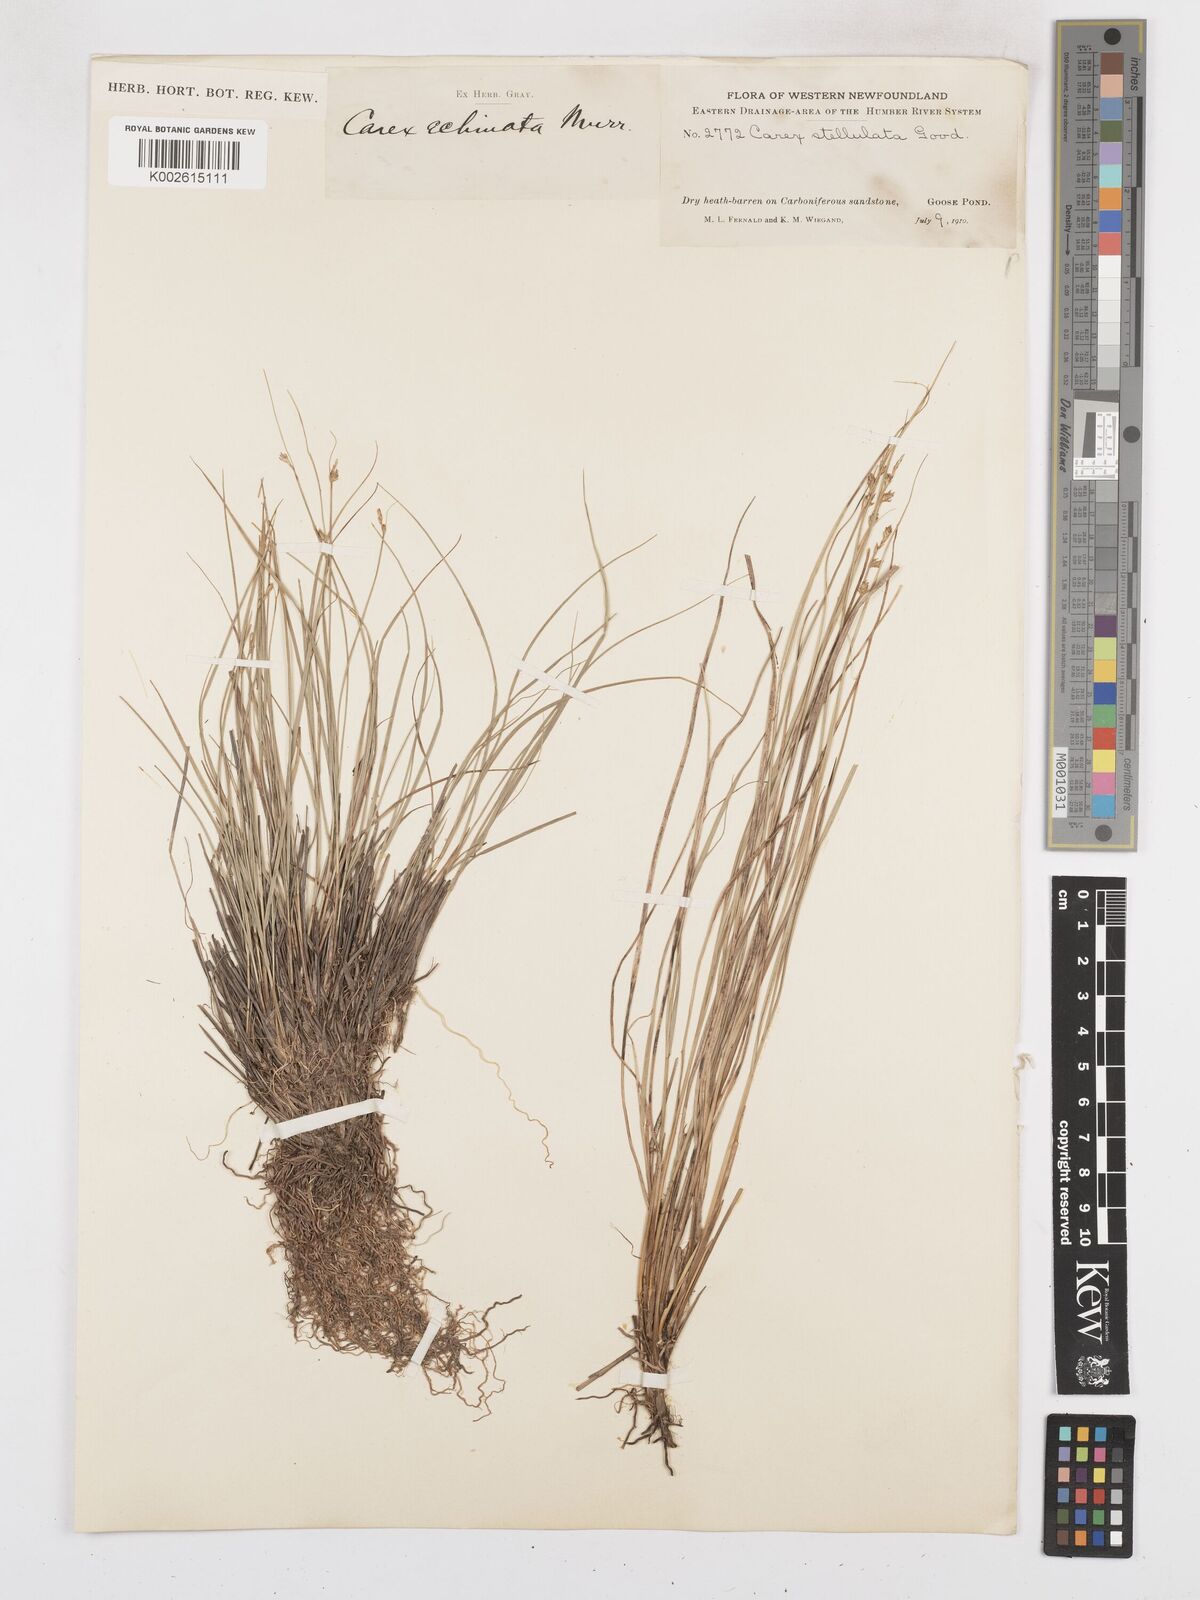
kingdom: Plantae
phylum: Tracheophyta
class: Liliopsida
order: Poales
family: Cyperaceae
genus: Carex
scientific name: Carex echinata
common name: Star sedge
